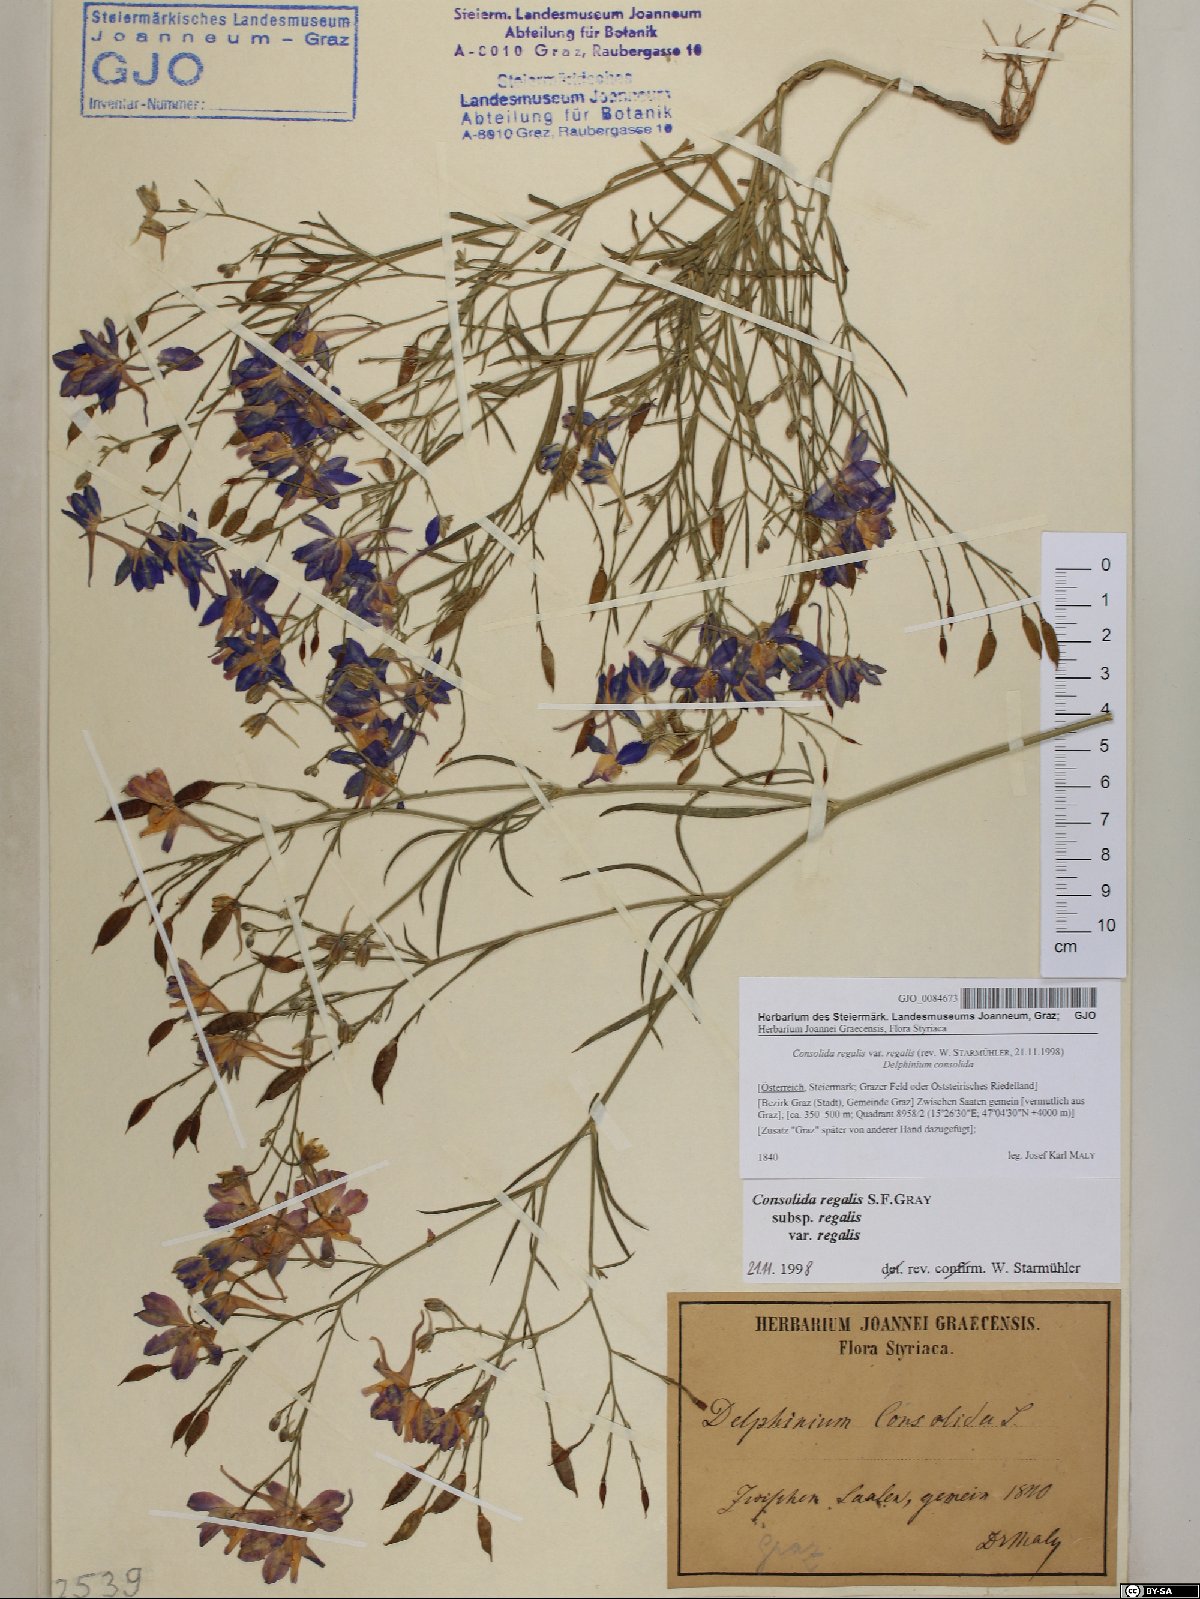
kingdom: Plantae
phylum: Tracheophyta
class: Magnoliopsida
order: Ranunculales
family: Ranunculaceae
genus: Delphinium
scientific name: Delphinium consolida
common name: Branching larkspur
